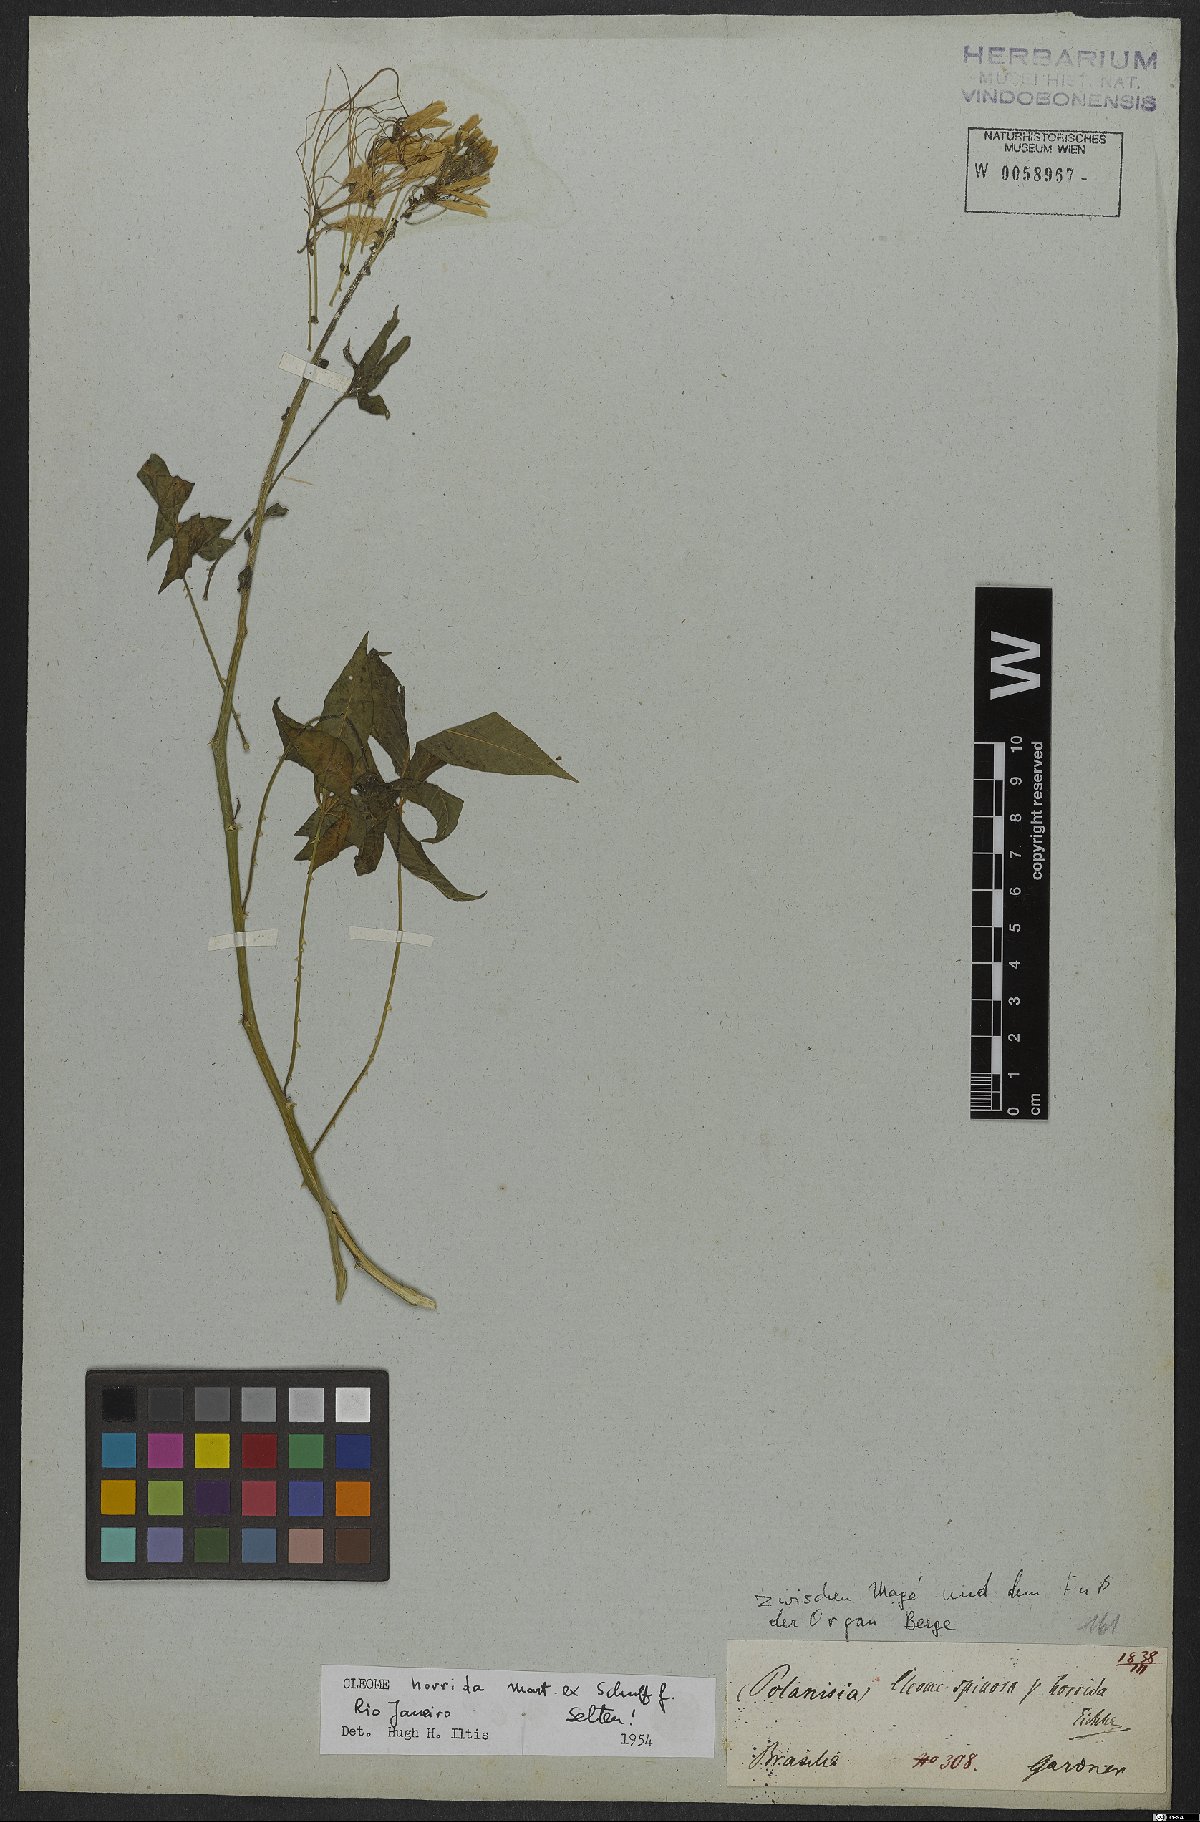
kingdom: Plantae
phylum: Tracheophyta
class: Magnoliopsida
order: Brassicales
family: Cleomaceae
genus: Tarenaya
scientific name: Tarenaya horrida
